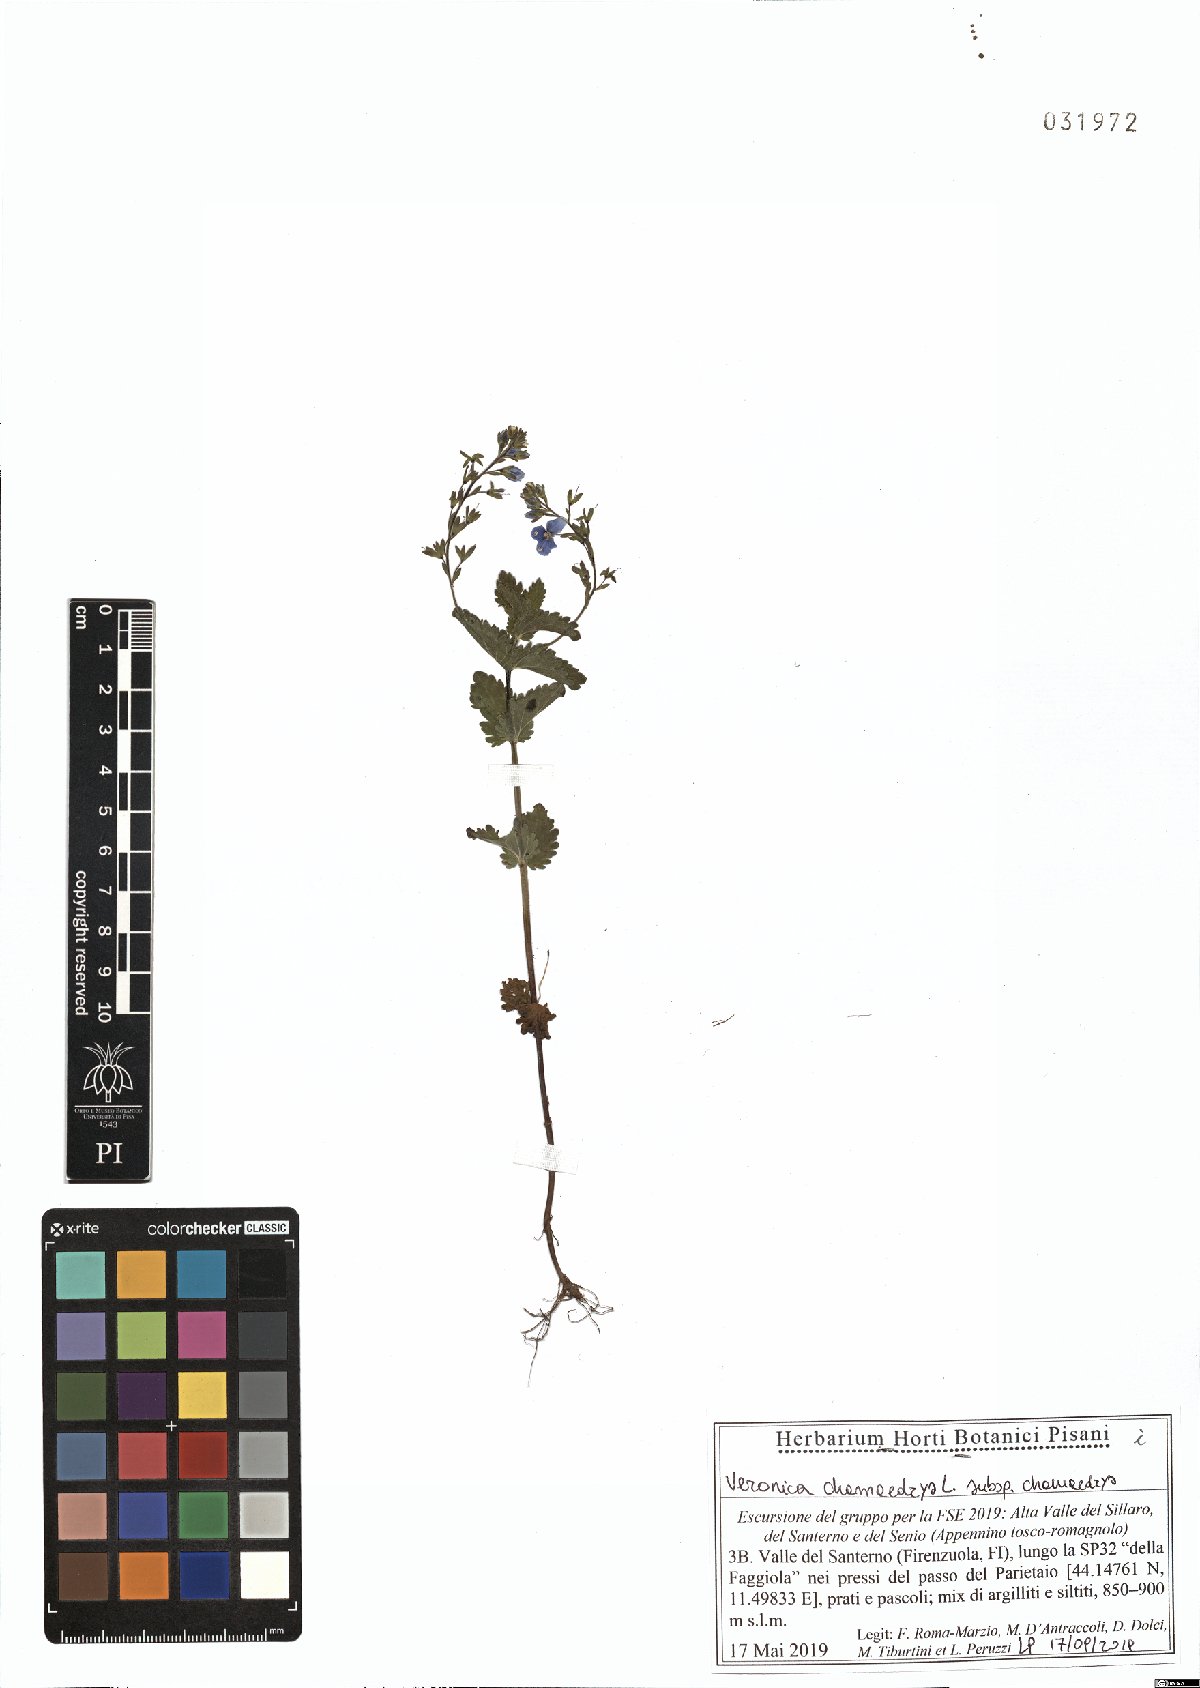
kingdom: Plantae
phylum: Tracheophyta
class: Magnoliopsida
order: Lamiales
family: Plantaginaceae
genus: Veronica
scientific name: Veronica chamaedrys
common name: Germander speedwell
